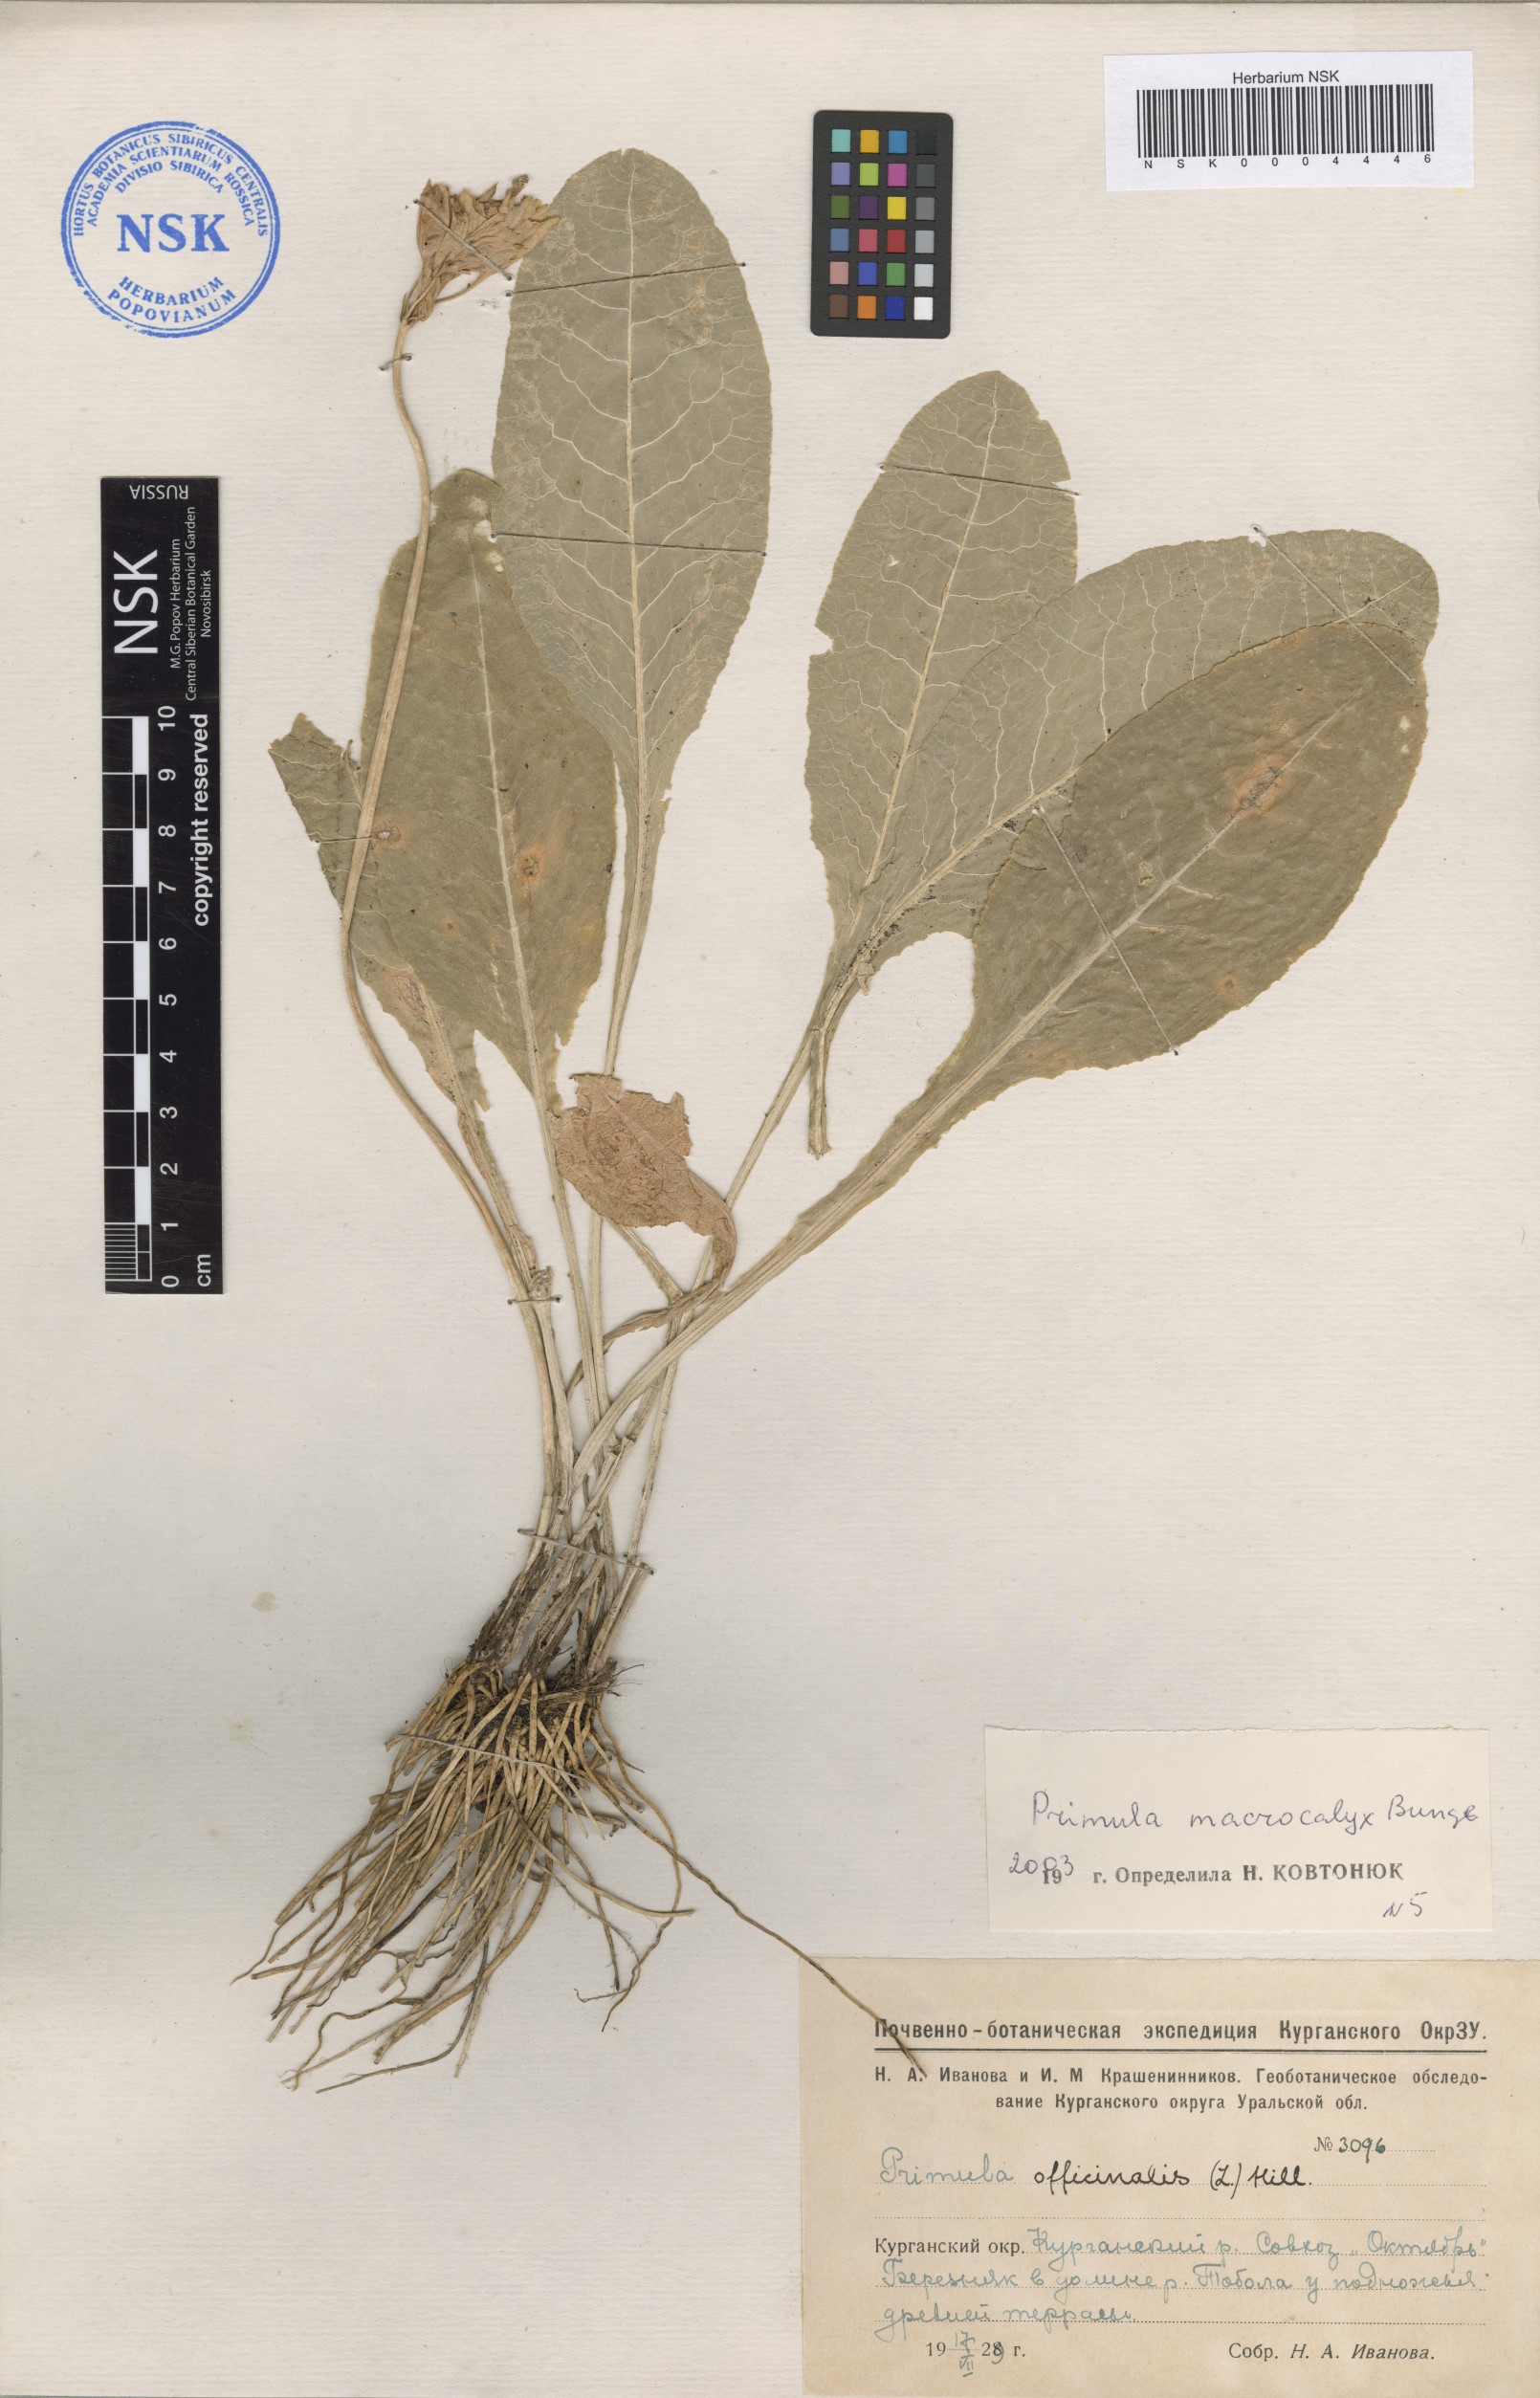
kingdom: Plantae
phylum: Tracheophyta
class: Magnoliopsida
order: Ericales
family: Primulaceae
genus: Primula
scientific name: Primula veris
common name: Cowslip
